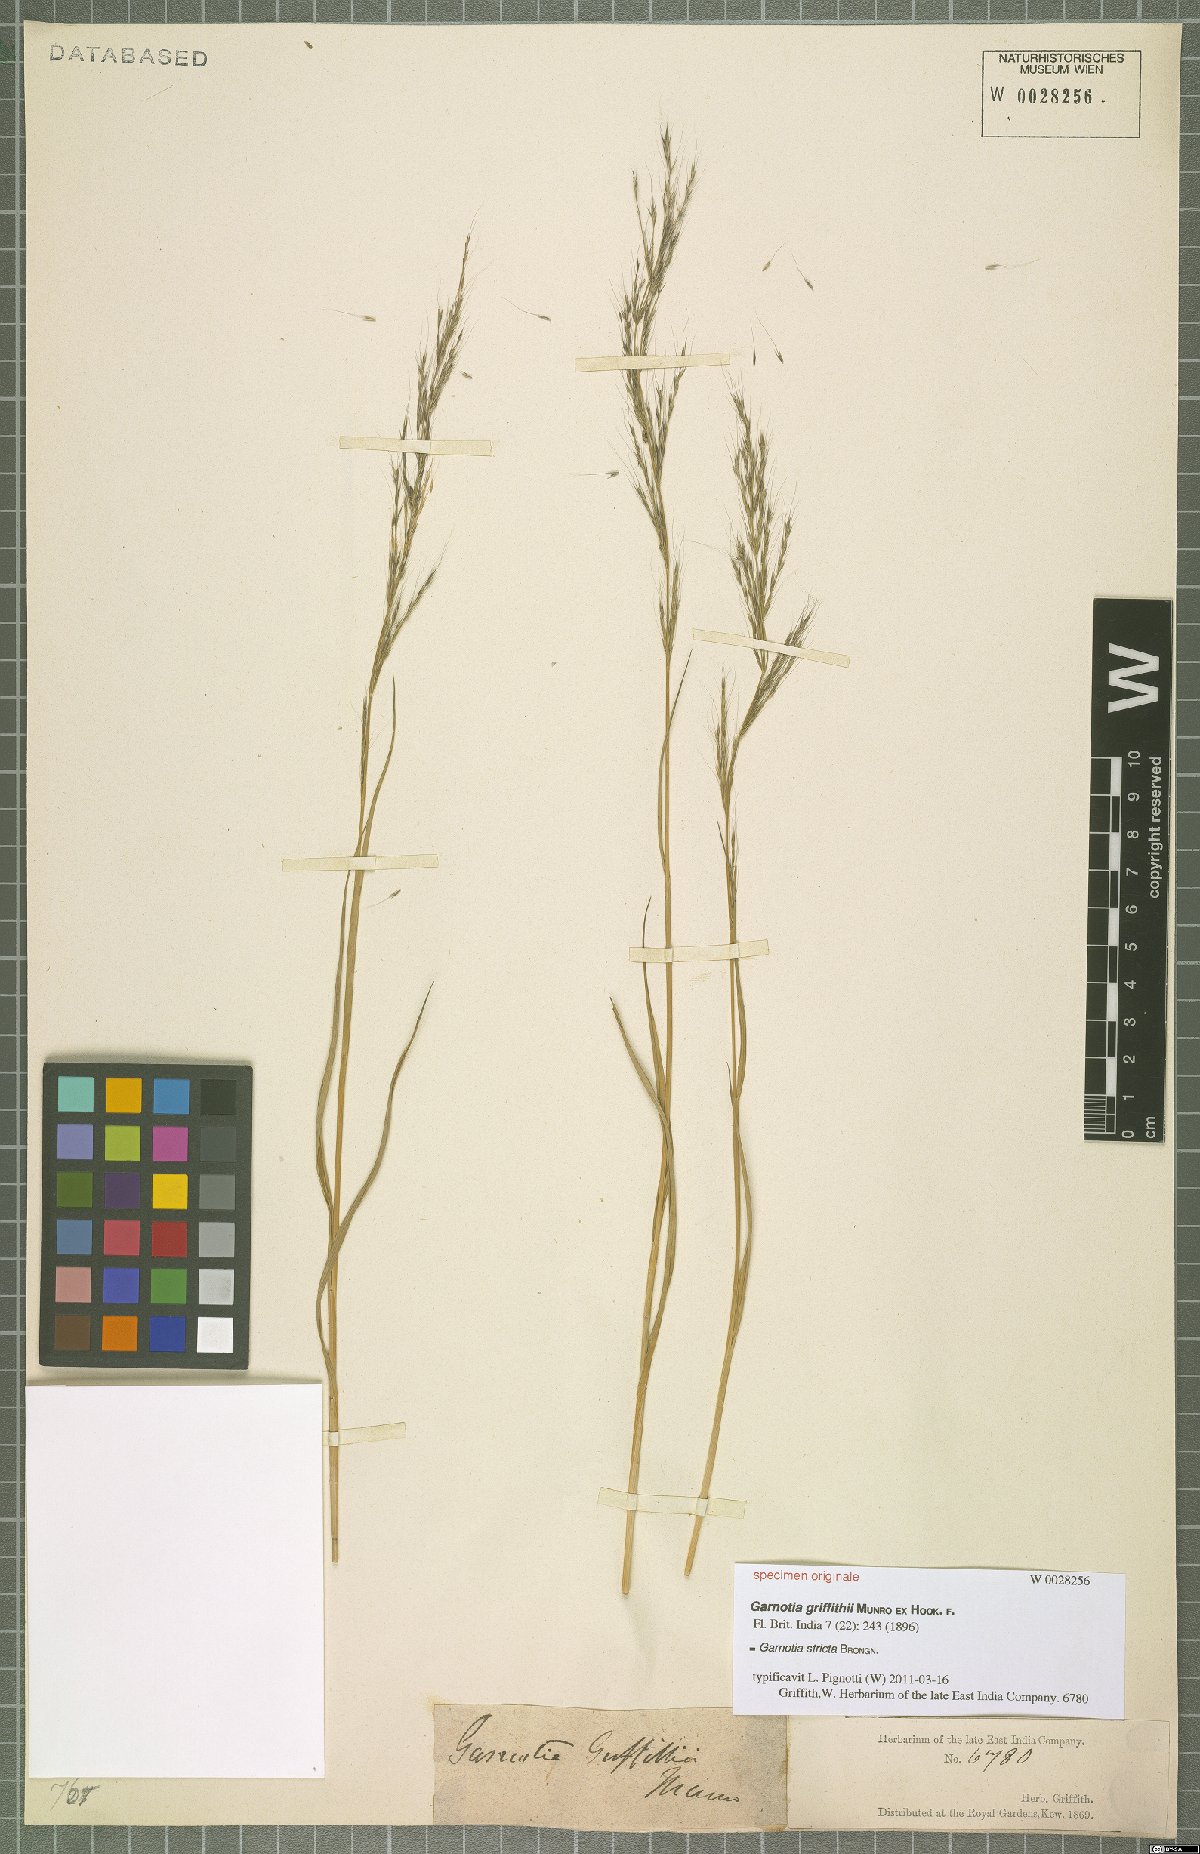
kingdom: Plantae
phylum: Tracheophyta
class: Liliopsida
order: Poales
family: Poaceae
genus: Garnotia
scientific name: Garnotia stricta
